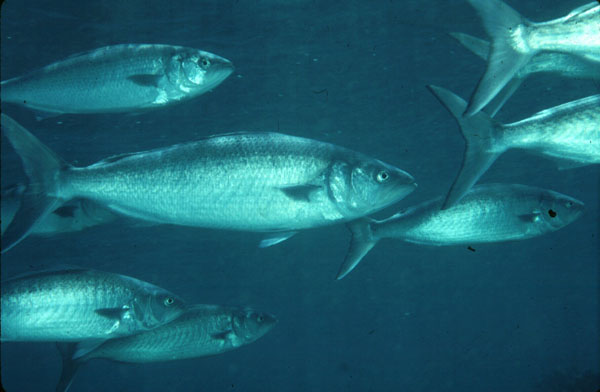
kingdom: Animalia
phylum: Chordata
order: Perciformes
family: Arripidae
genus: Arripis
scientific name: Arripis trutta
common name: Kahawai
